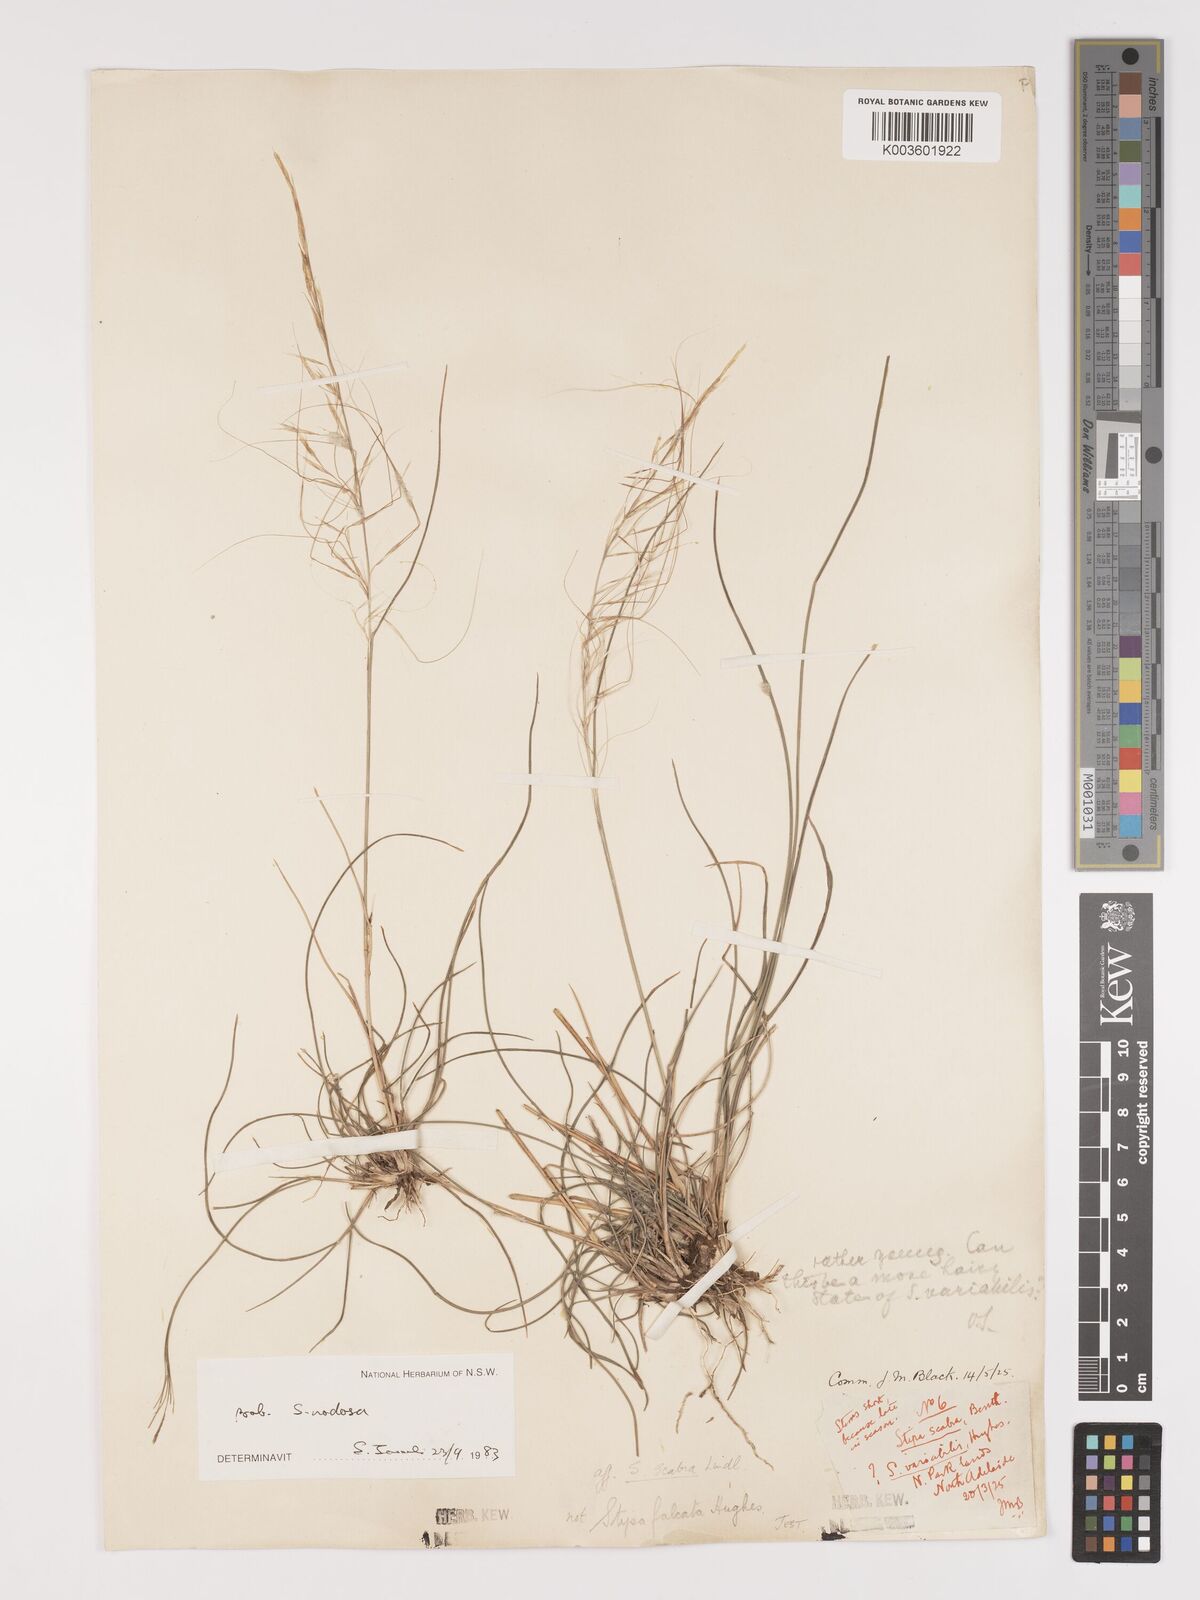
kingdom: Plantae
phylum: Tracheophyta
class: Liliopsida
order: Poales
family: Poaceae
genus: Austrostipa
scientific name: Austrostipa nodosa
